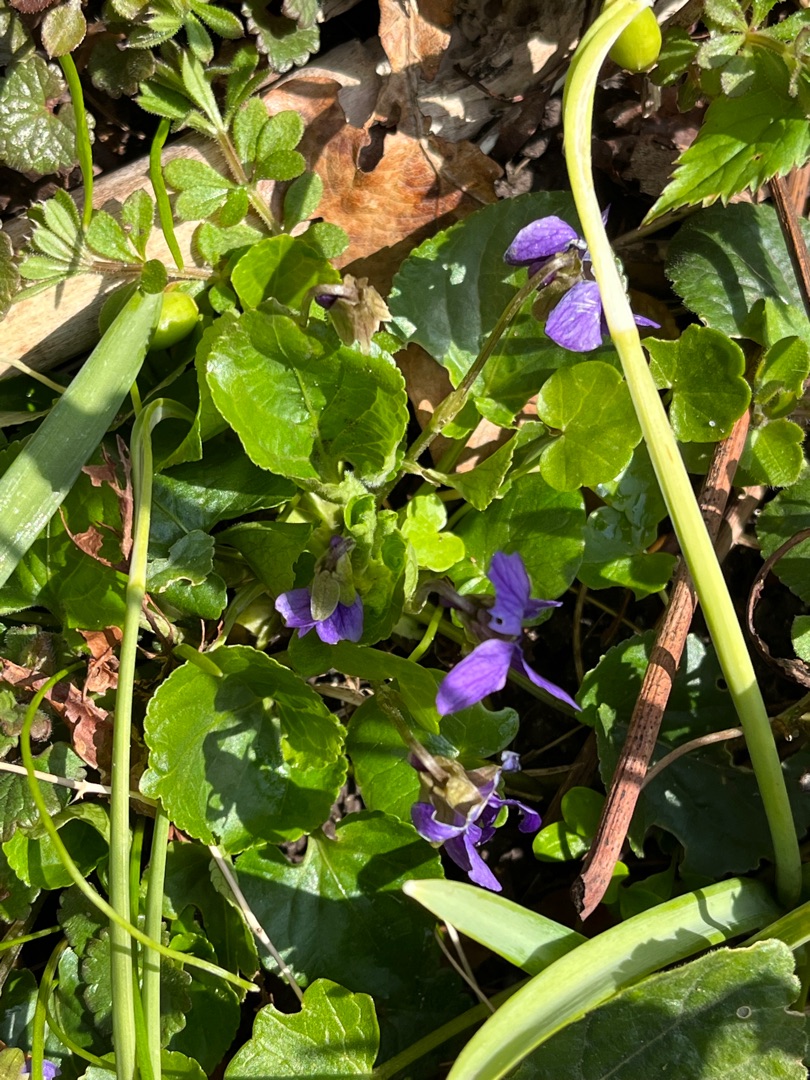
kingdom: Plantae
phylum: Tracheophyta
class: Magnoliopsida
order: Malpighiales
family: Violaceae
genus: Viola
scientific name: Viola odorata
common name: Marts-viol
